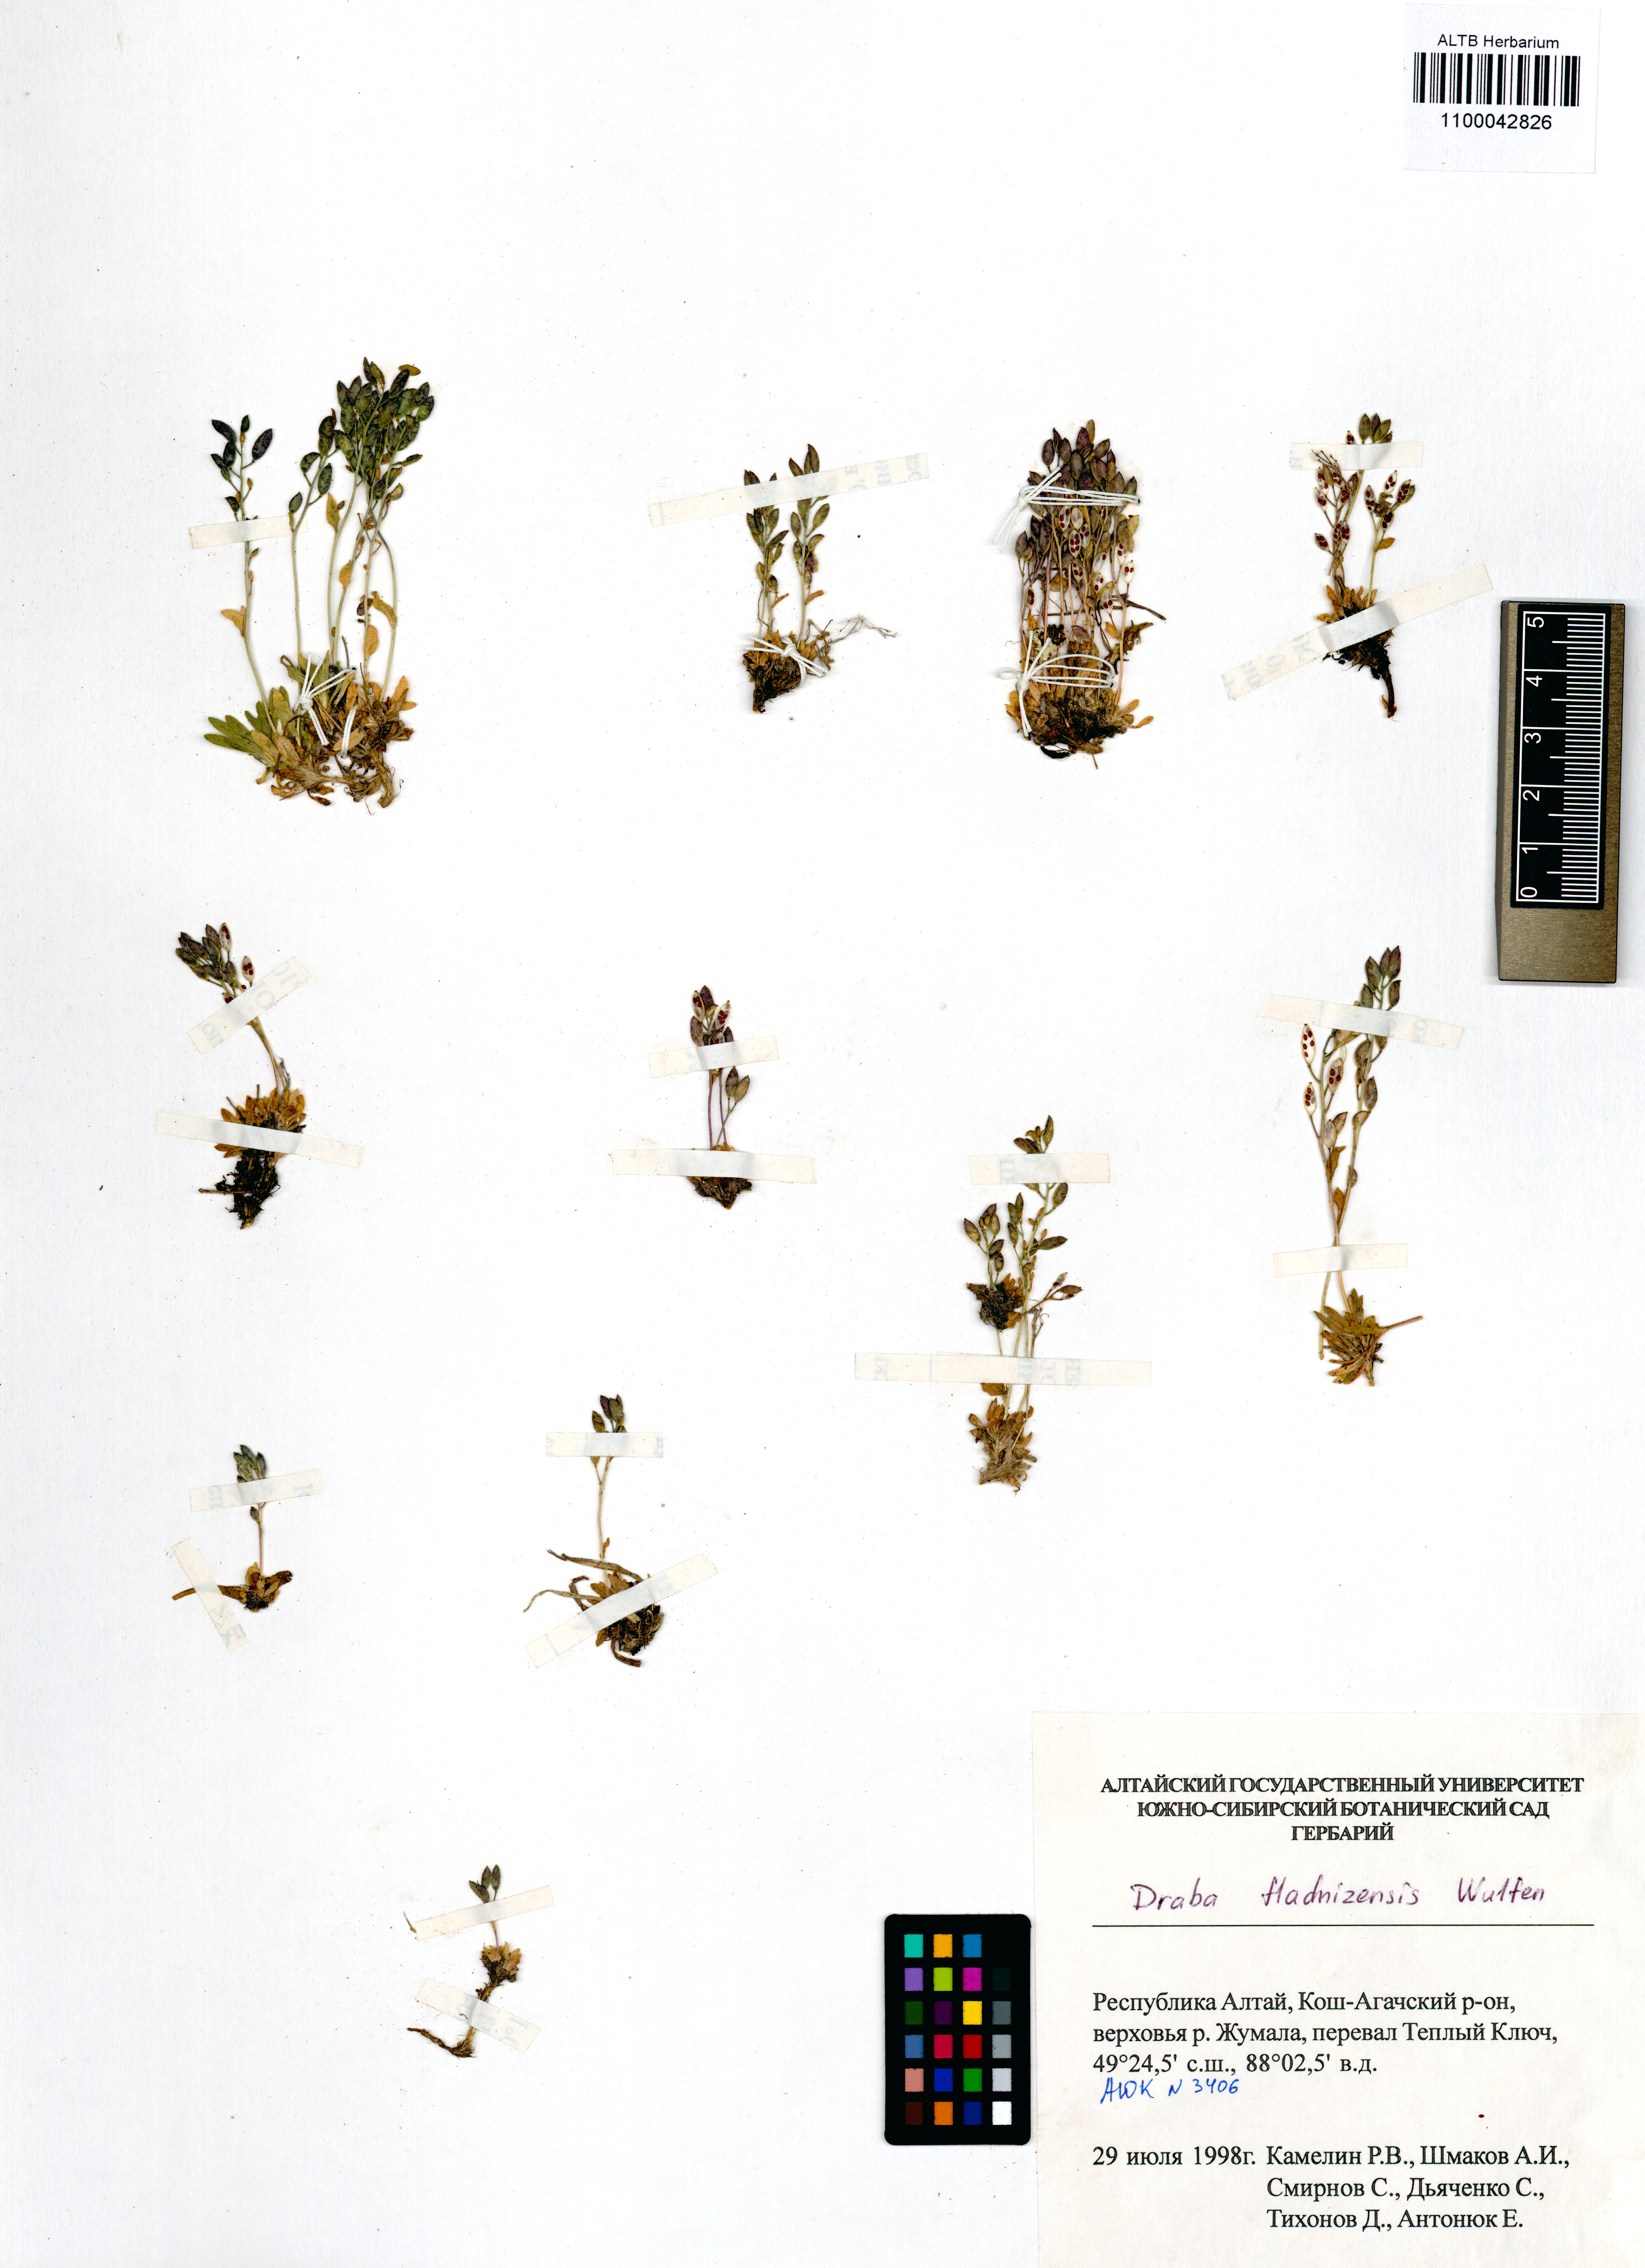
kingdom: Plantae
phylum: Tracheophyta
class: Magnoliopsida
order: Brassicales
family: Brassicaceae
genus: Draba
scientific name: Draba fladnizensis
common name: Austrian draba
